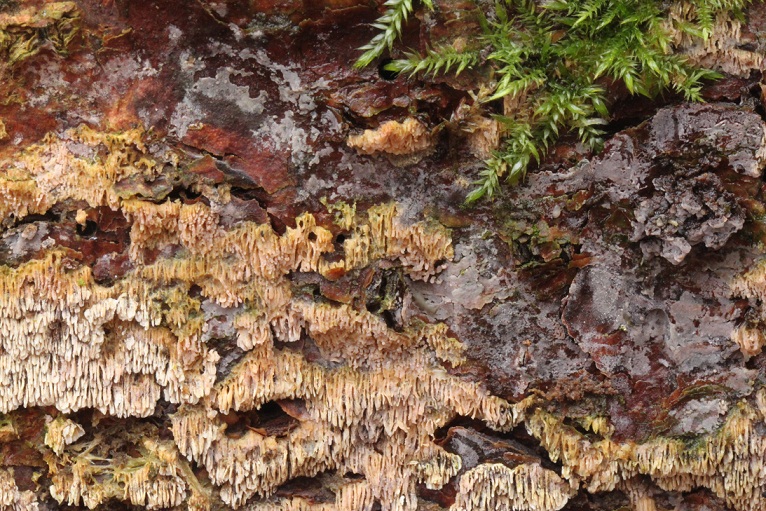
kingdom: Fungi
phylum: Basidiomycota
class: Agaricomycetes
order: Hymenochaetales
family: Schizoporaceae
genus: Xylodon
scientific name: Xylodon subtropicus
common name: labyrint-tandsvamp
